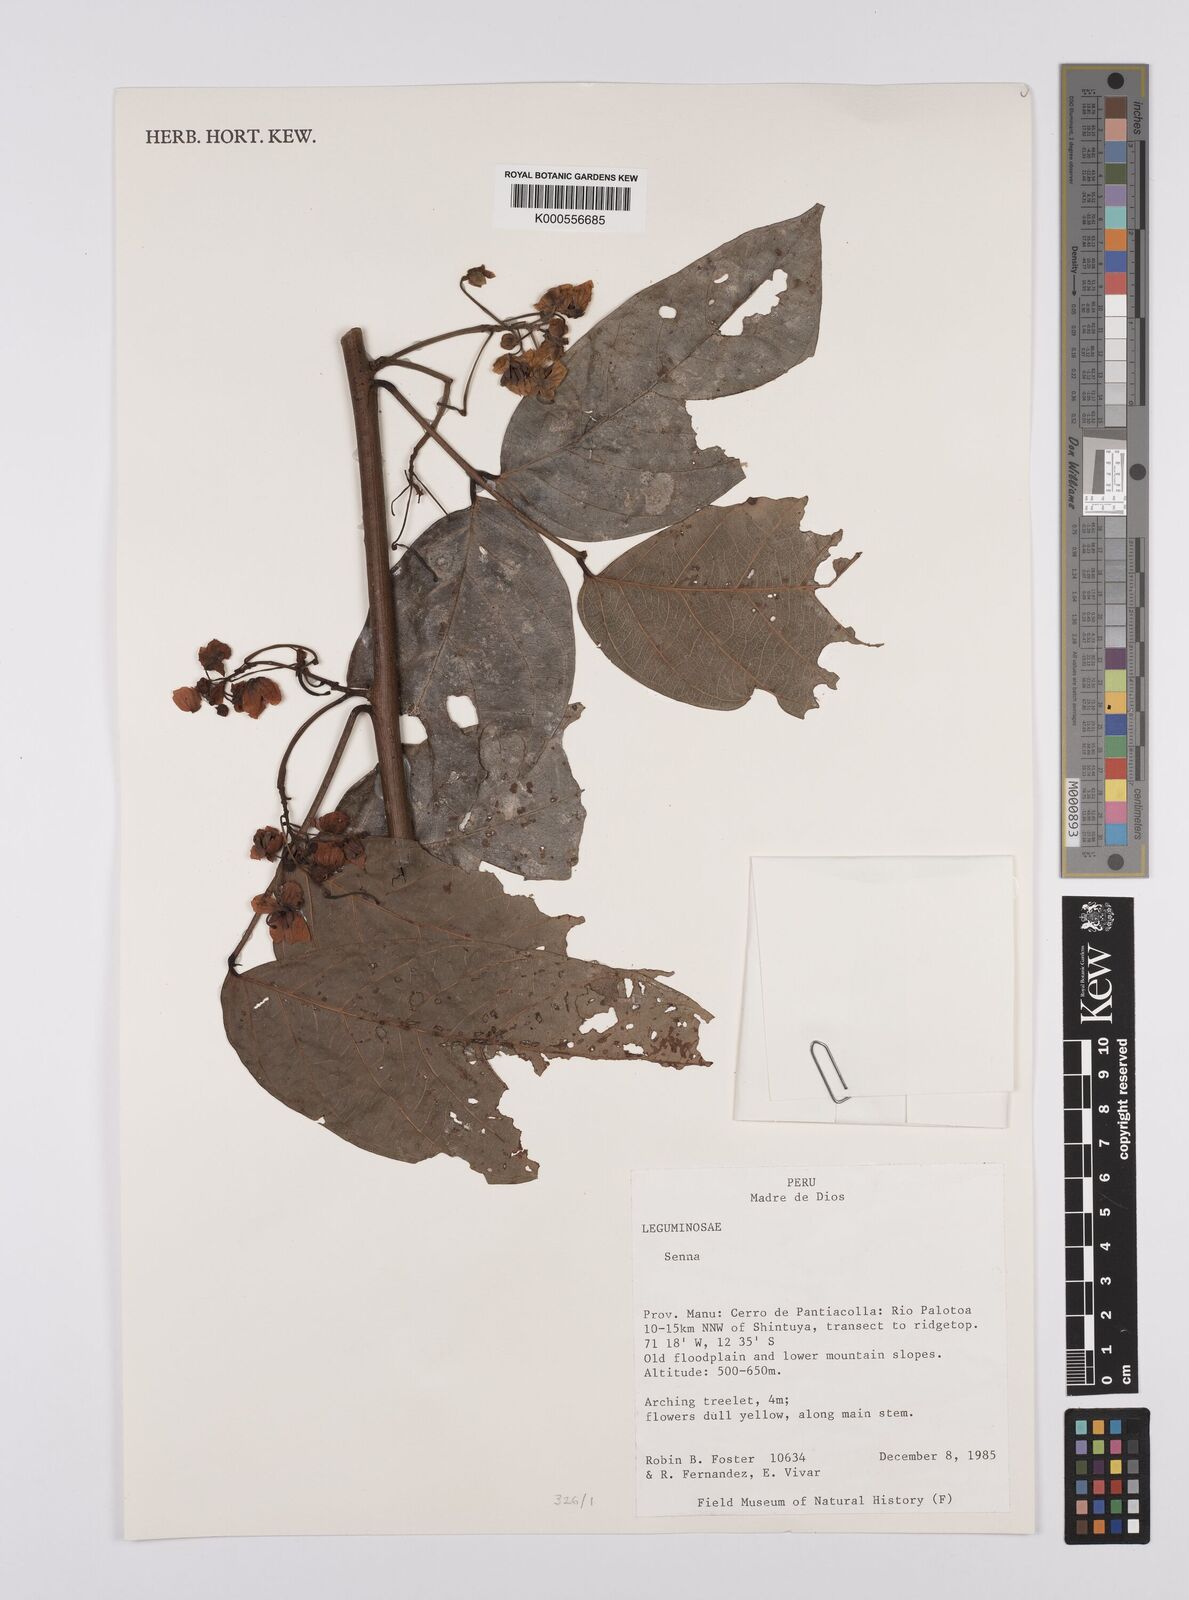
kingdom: Plantae
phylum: Tracheophyta
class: Magnoliopsida
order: Fabales
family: Fabaceae
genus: Senna
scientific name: Senna
